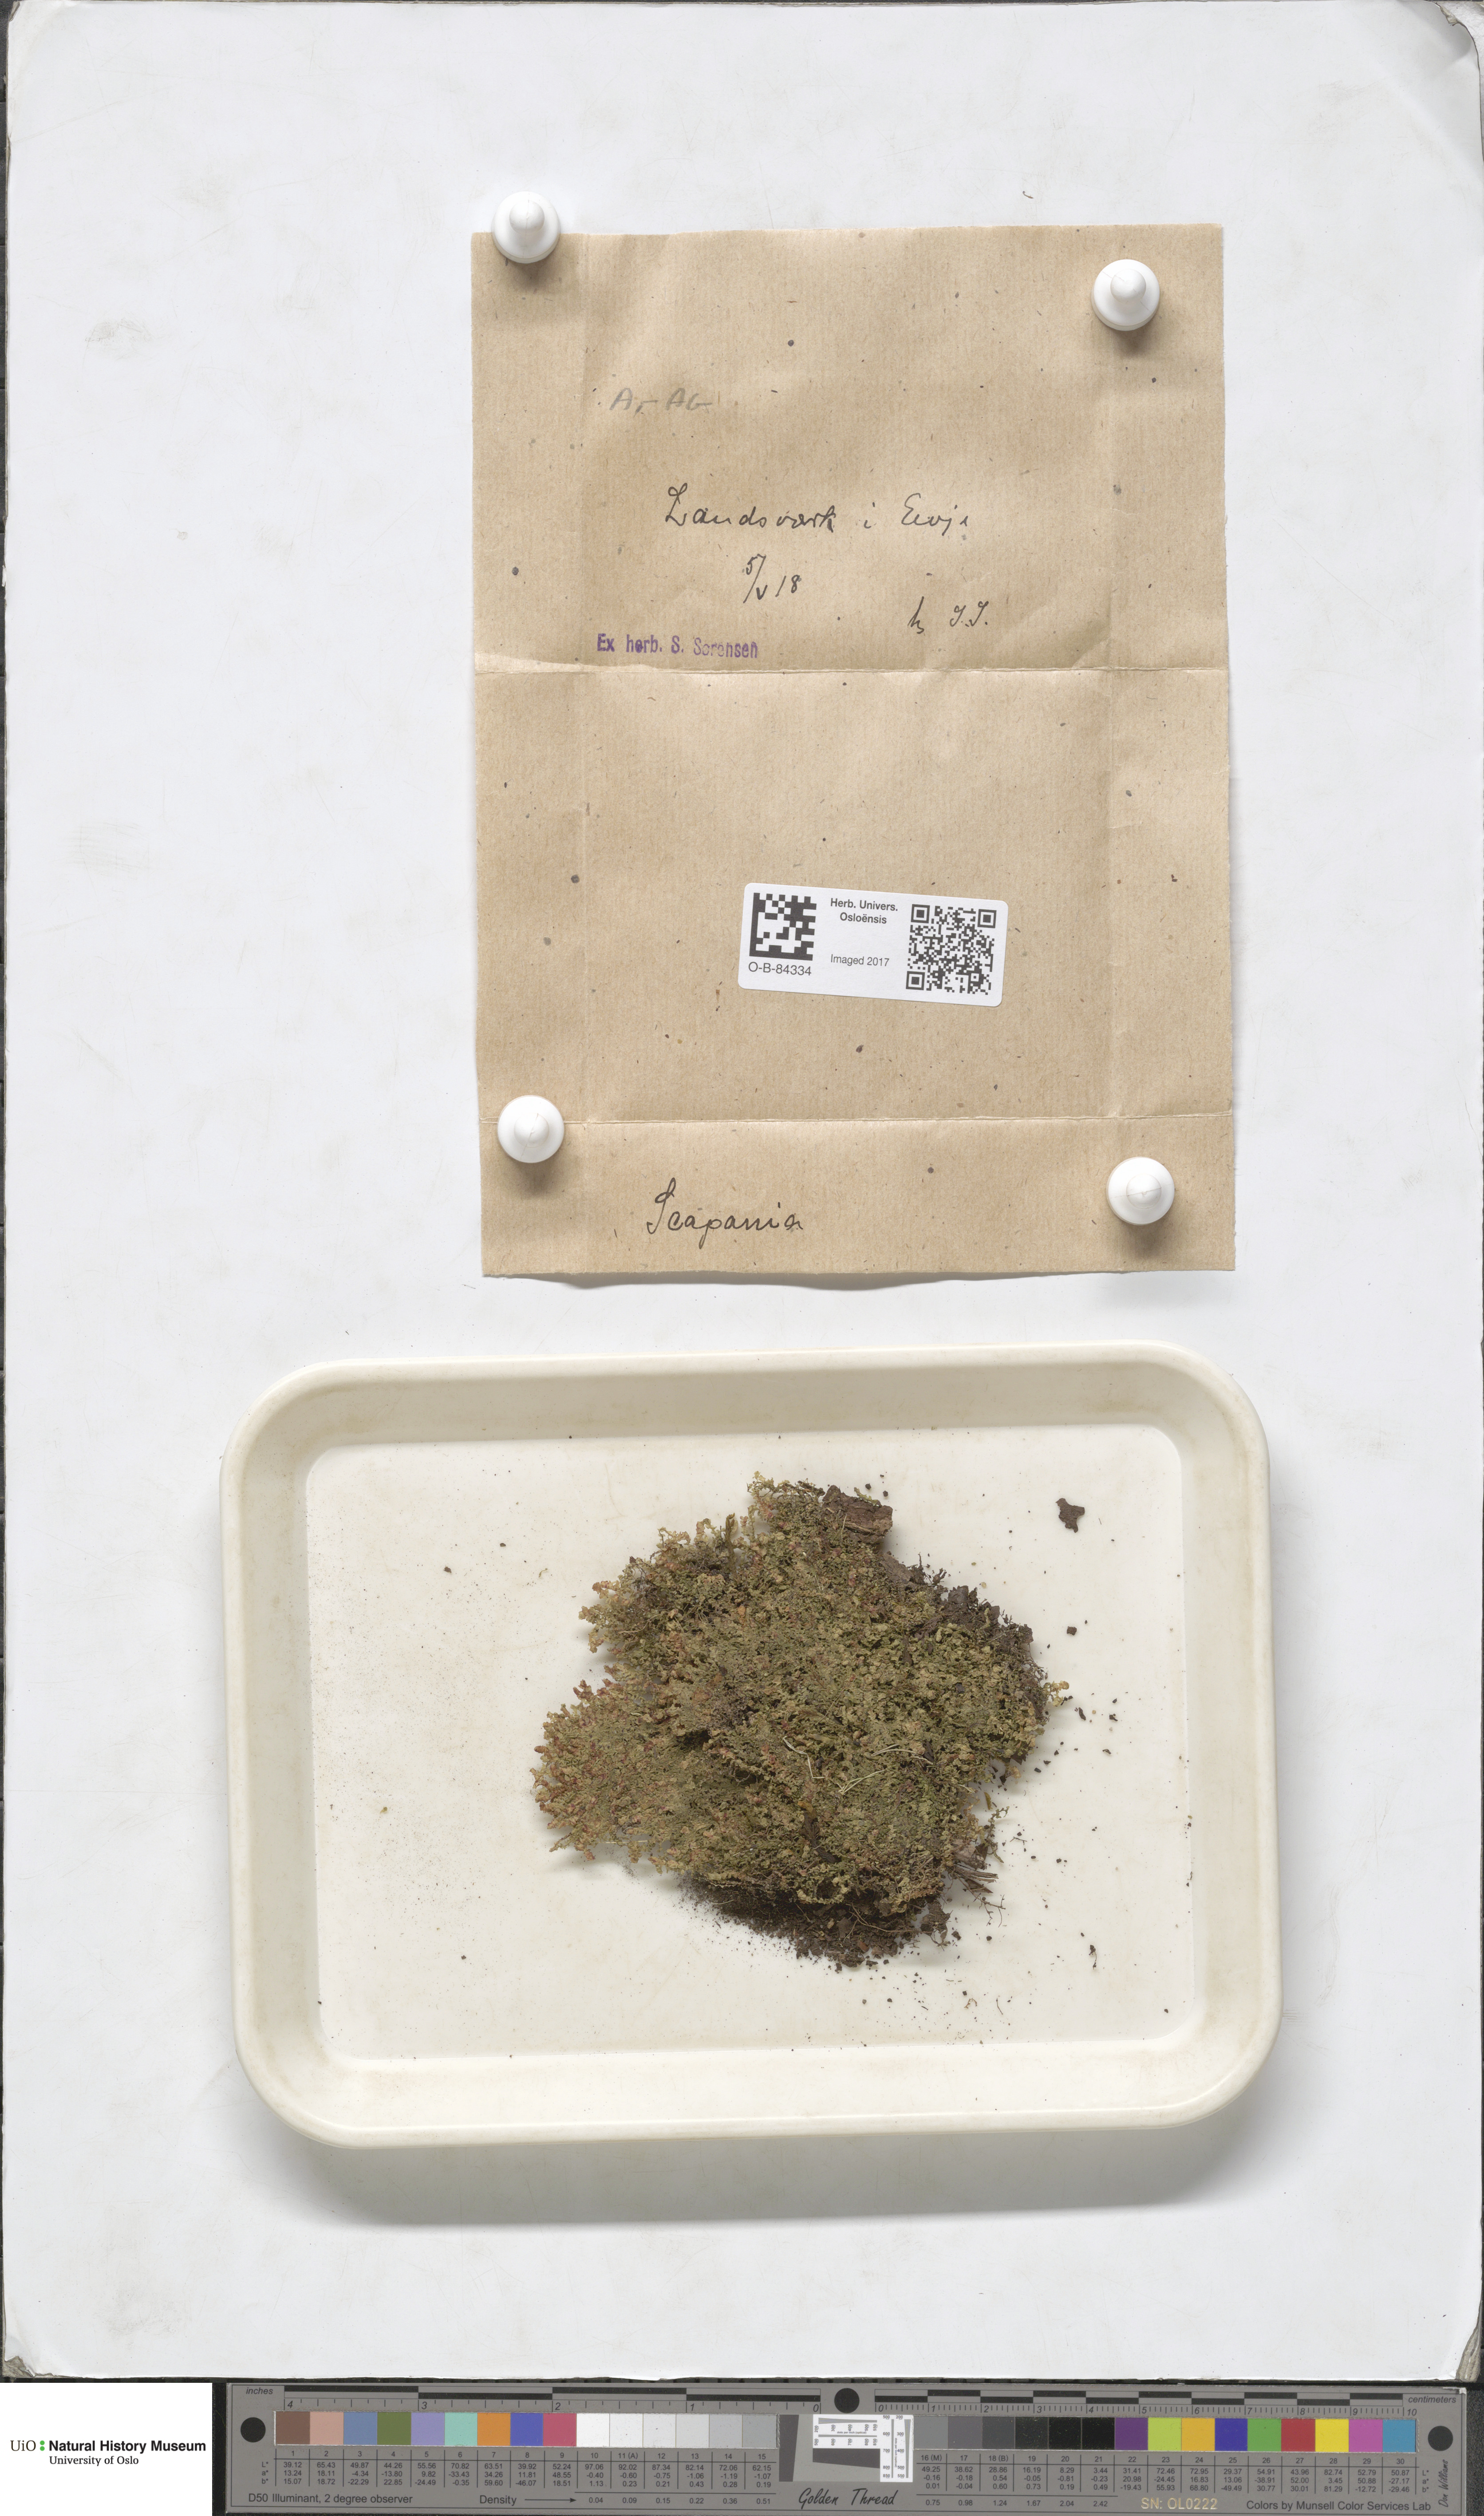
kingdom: Plantae
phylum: Marchantiophyta
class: Jungermanniopsida
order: Jungermanniales
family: Scapaniaceae
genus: Scapania
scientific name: Scapania
